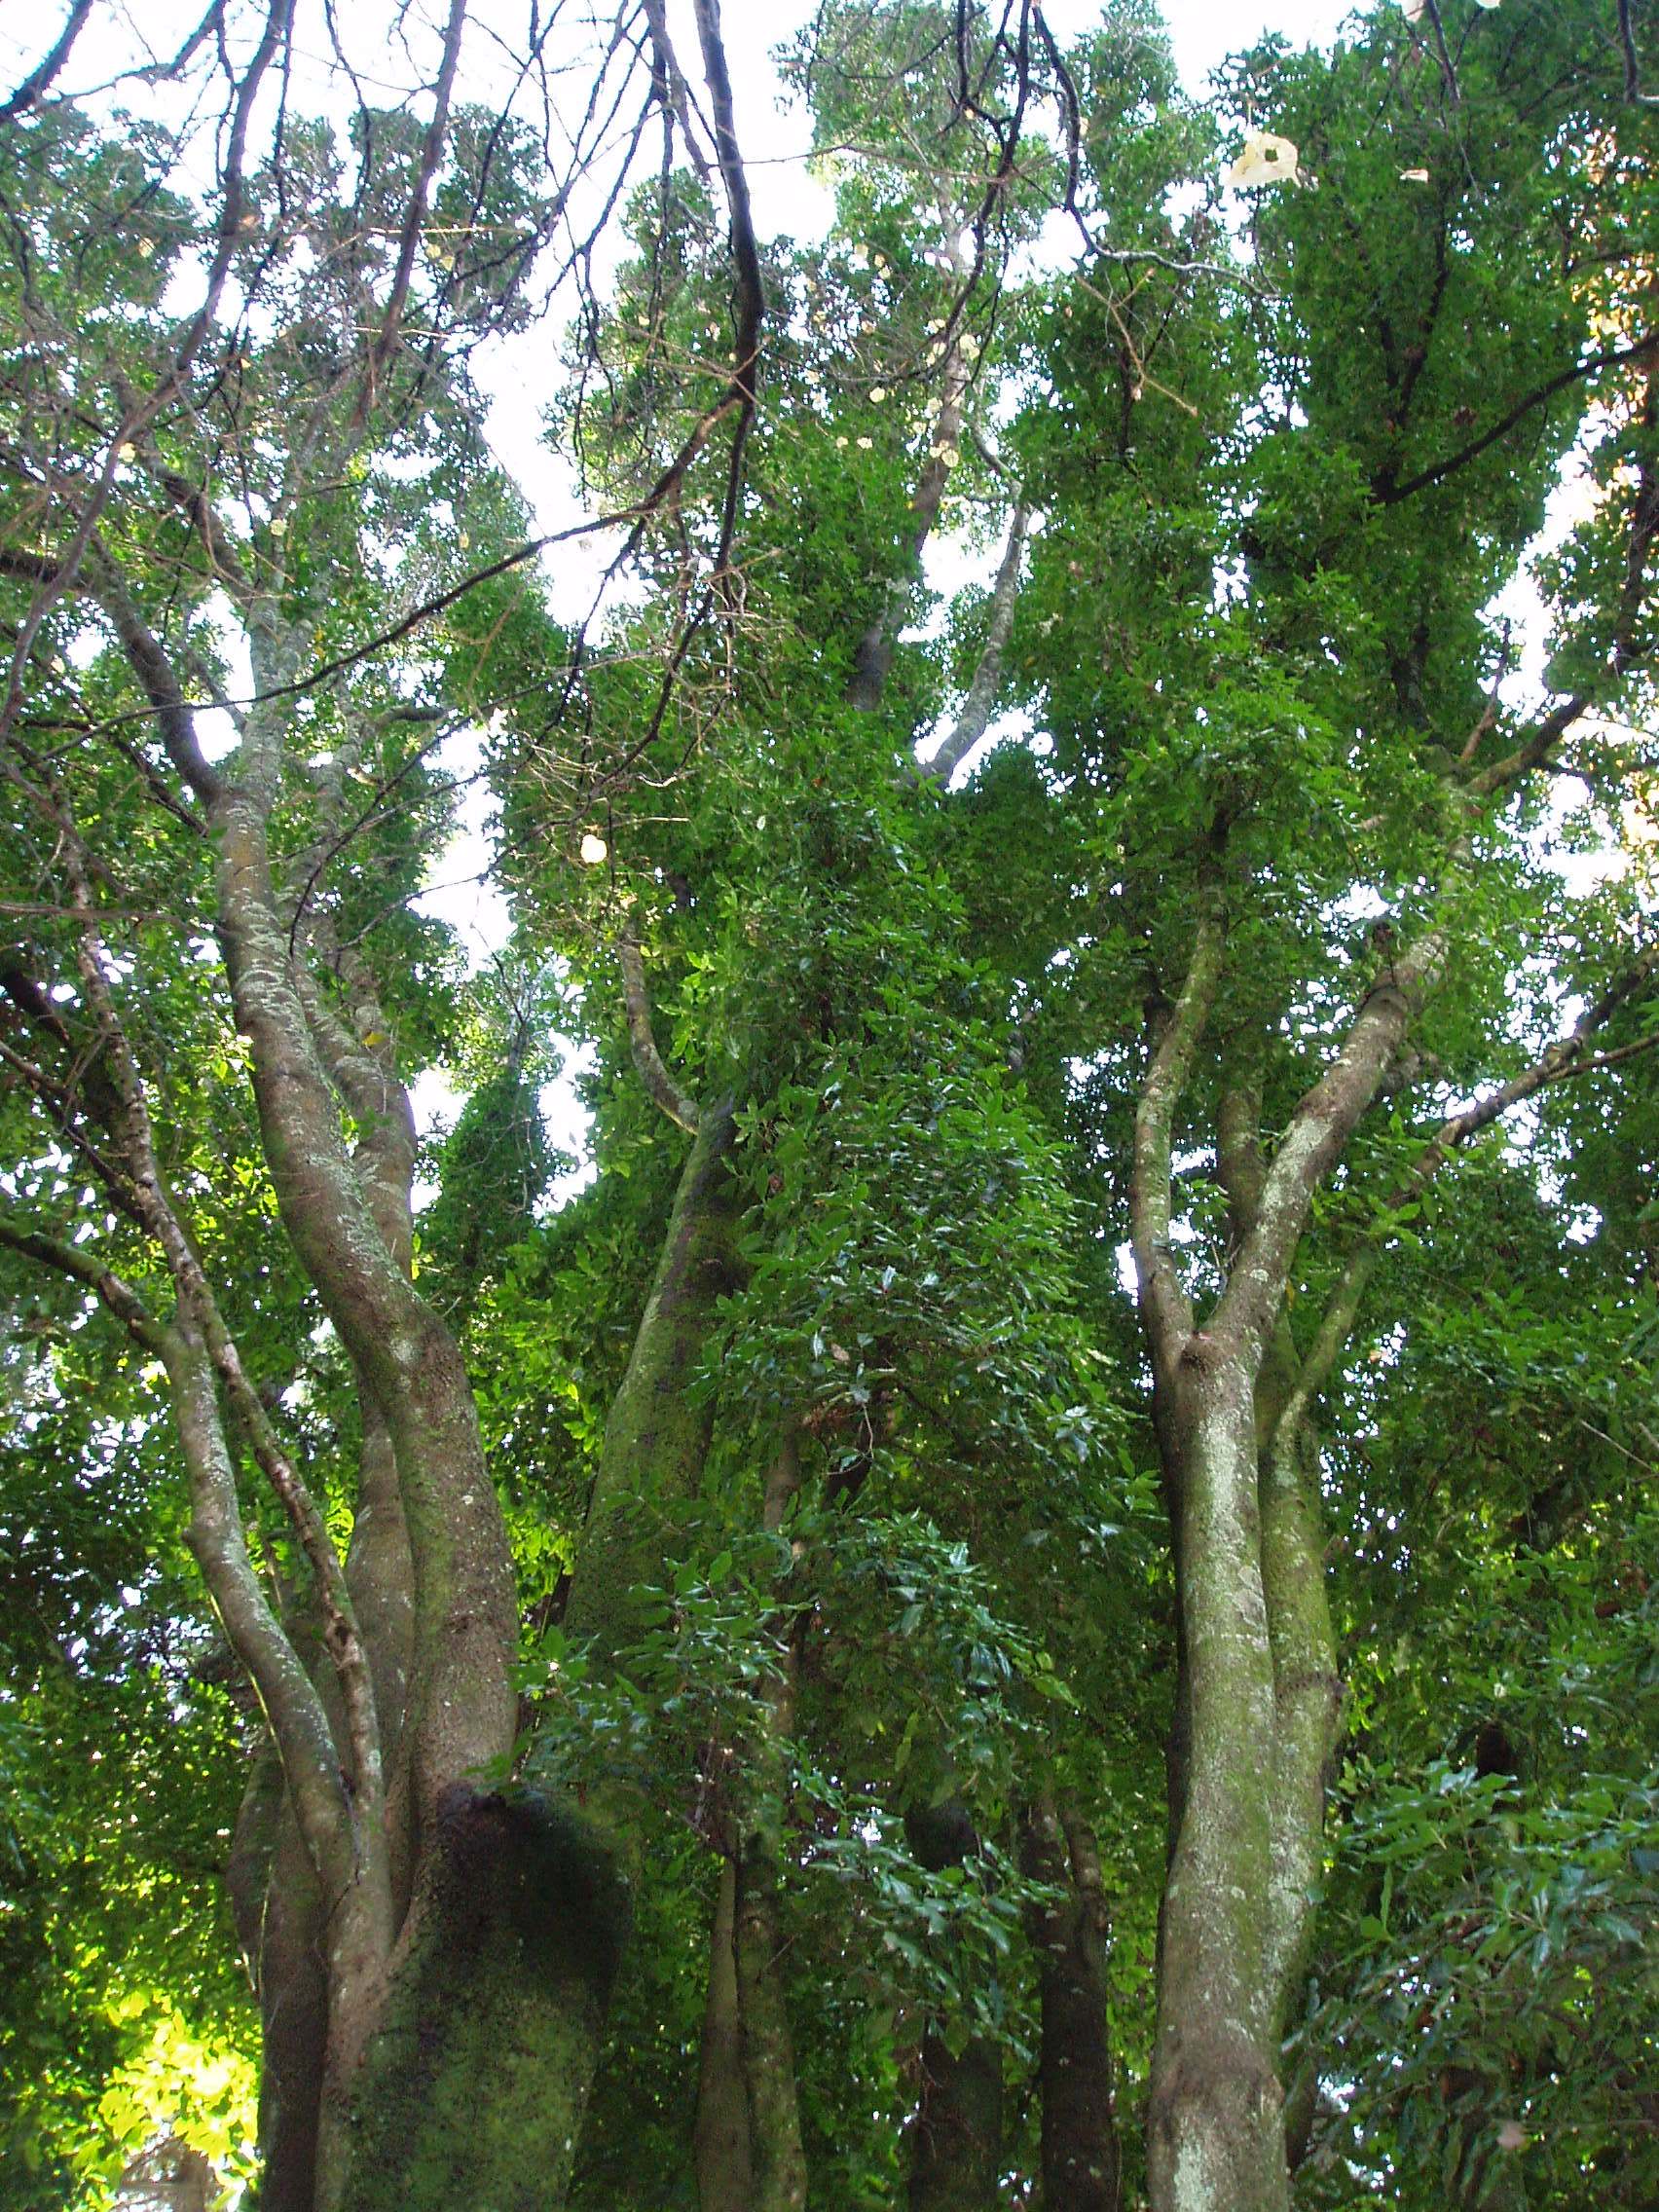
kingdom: Plantae
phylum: Tracheophyta
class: Magnoliopsida
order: Lamiales
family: Oleaceae
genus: Picconia
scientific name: Picconia excelsa
